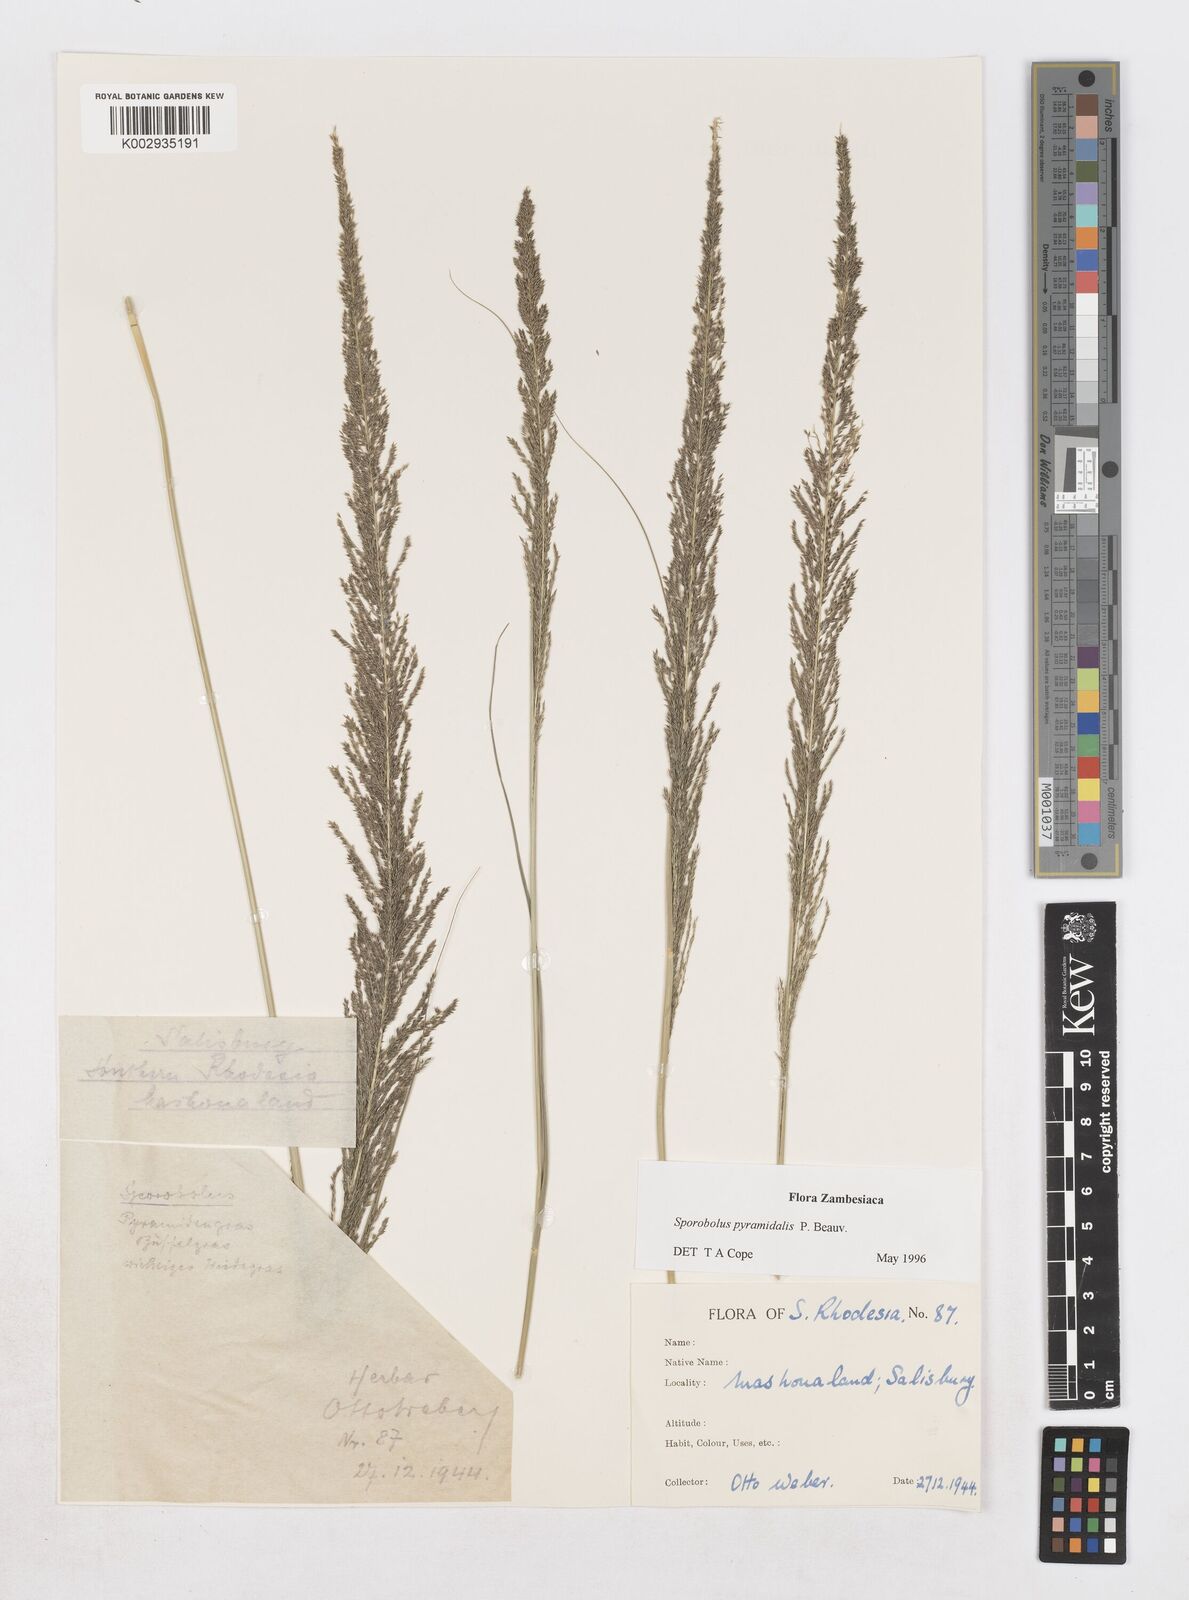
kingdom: Plantae
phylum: Tracheophyta
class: Liliopsida
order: Poales
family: Poaceae
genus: Sporobolus
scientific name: Sporobolus pyramidalis
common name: West indian dropseed
